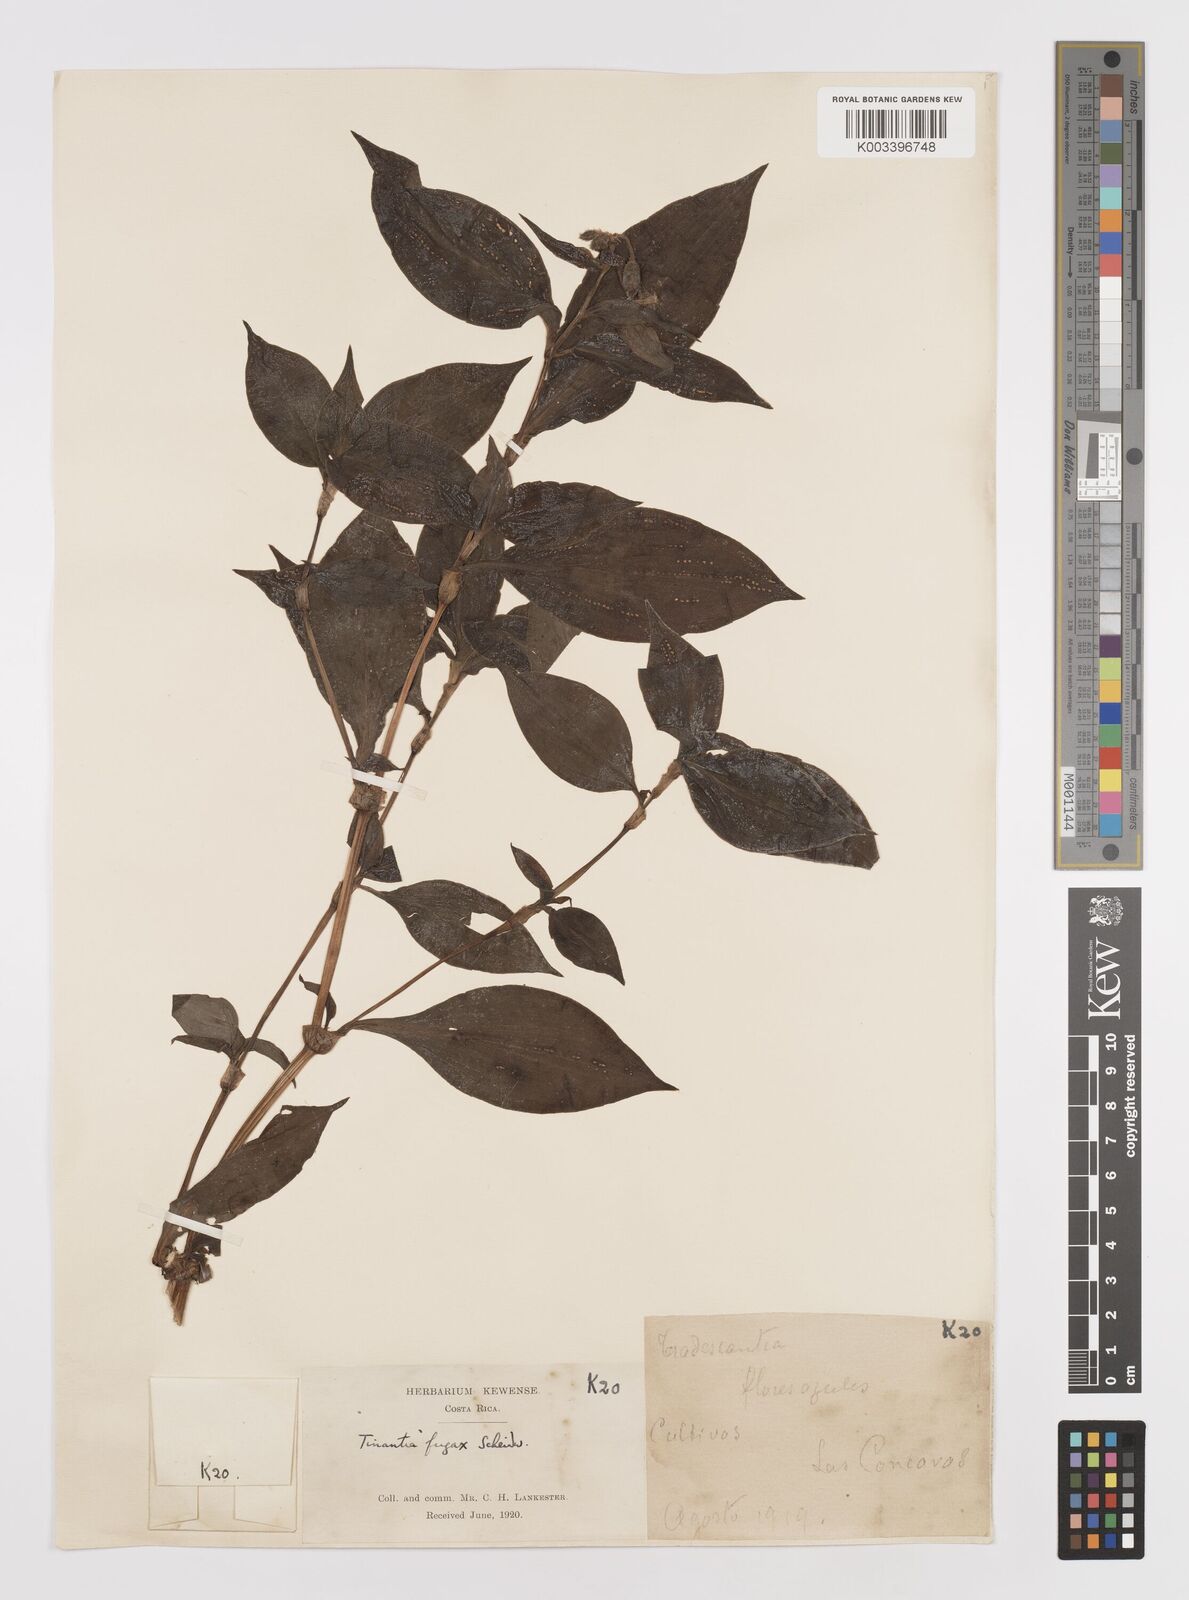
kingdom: Plantae
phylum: Tracheophyta
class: Liliopsida
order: Commelinales
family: Commelinaceae
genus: Tinantia
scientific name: Tinantia erecta
